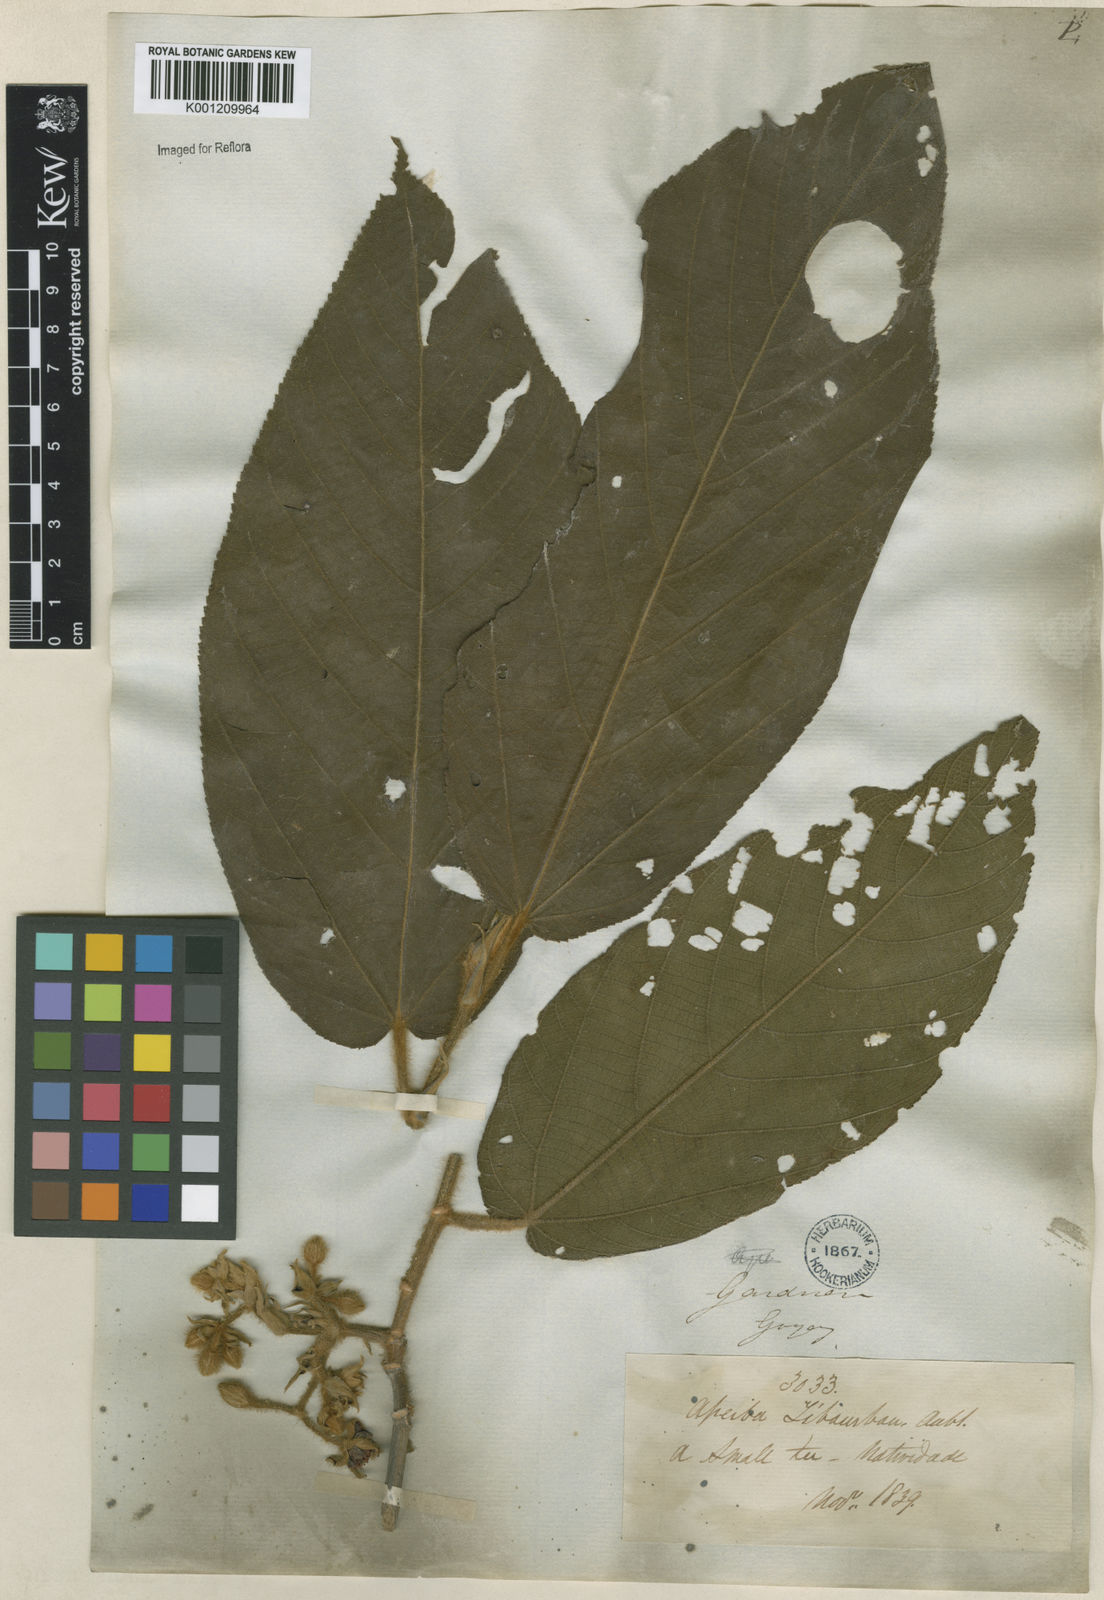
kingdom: Plantae
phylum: Tracheophyta
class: Magnoliopsida
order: Malvales
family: Malvaceae
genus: Apeiba
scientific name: Apeiba tibourbou
